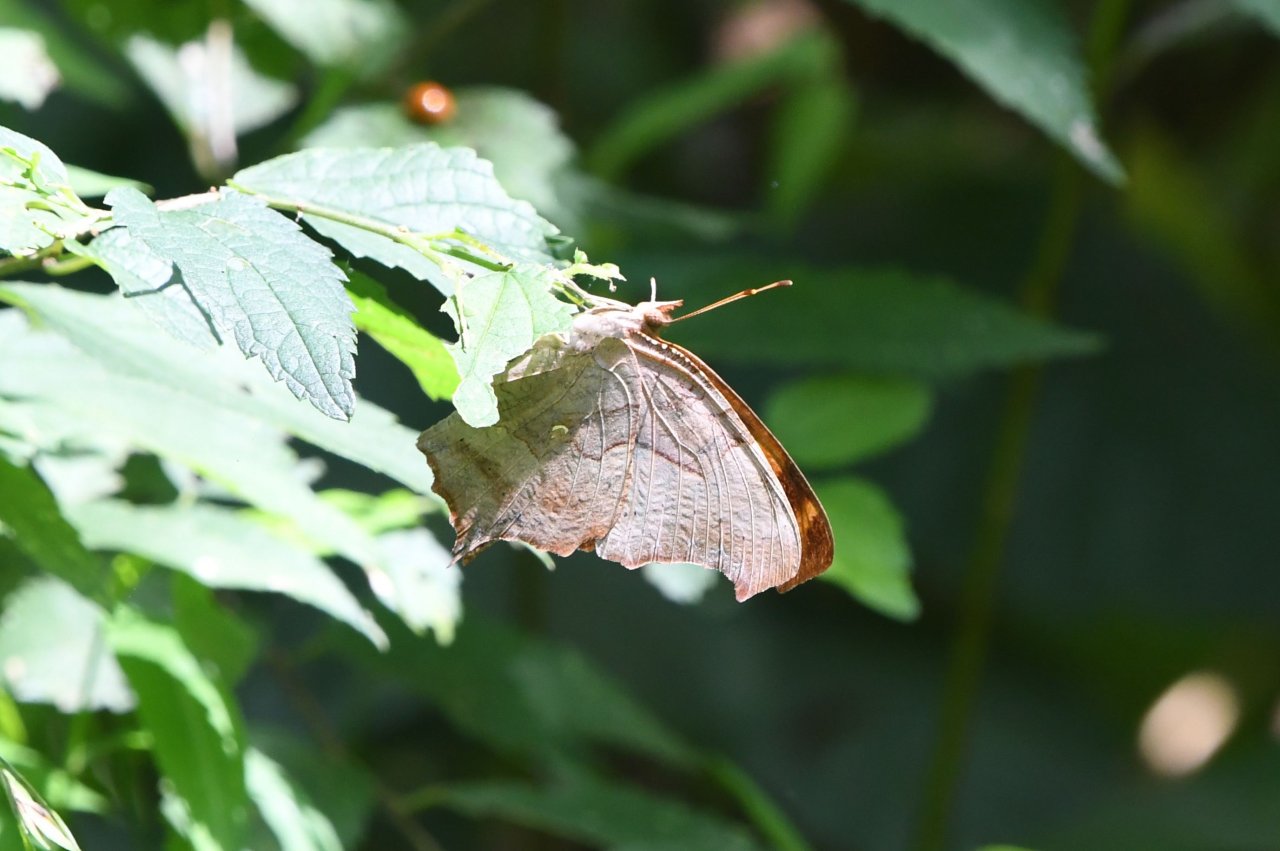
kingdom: Animalia
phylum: Arthropoda
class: Insecta
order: Lepidoptera
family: Nymphalidae
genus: Polygonia
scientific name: Polygonia interrogationis
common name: Question Mark
